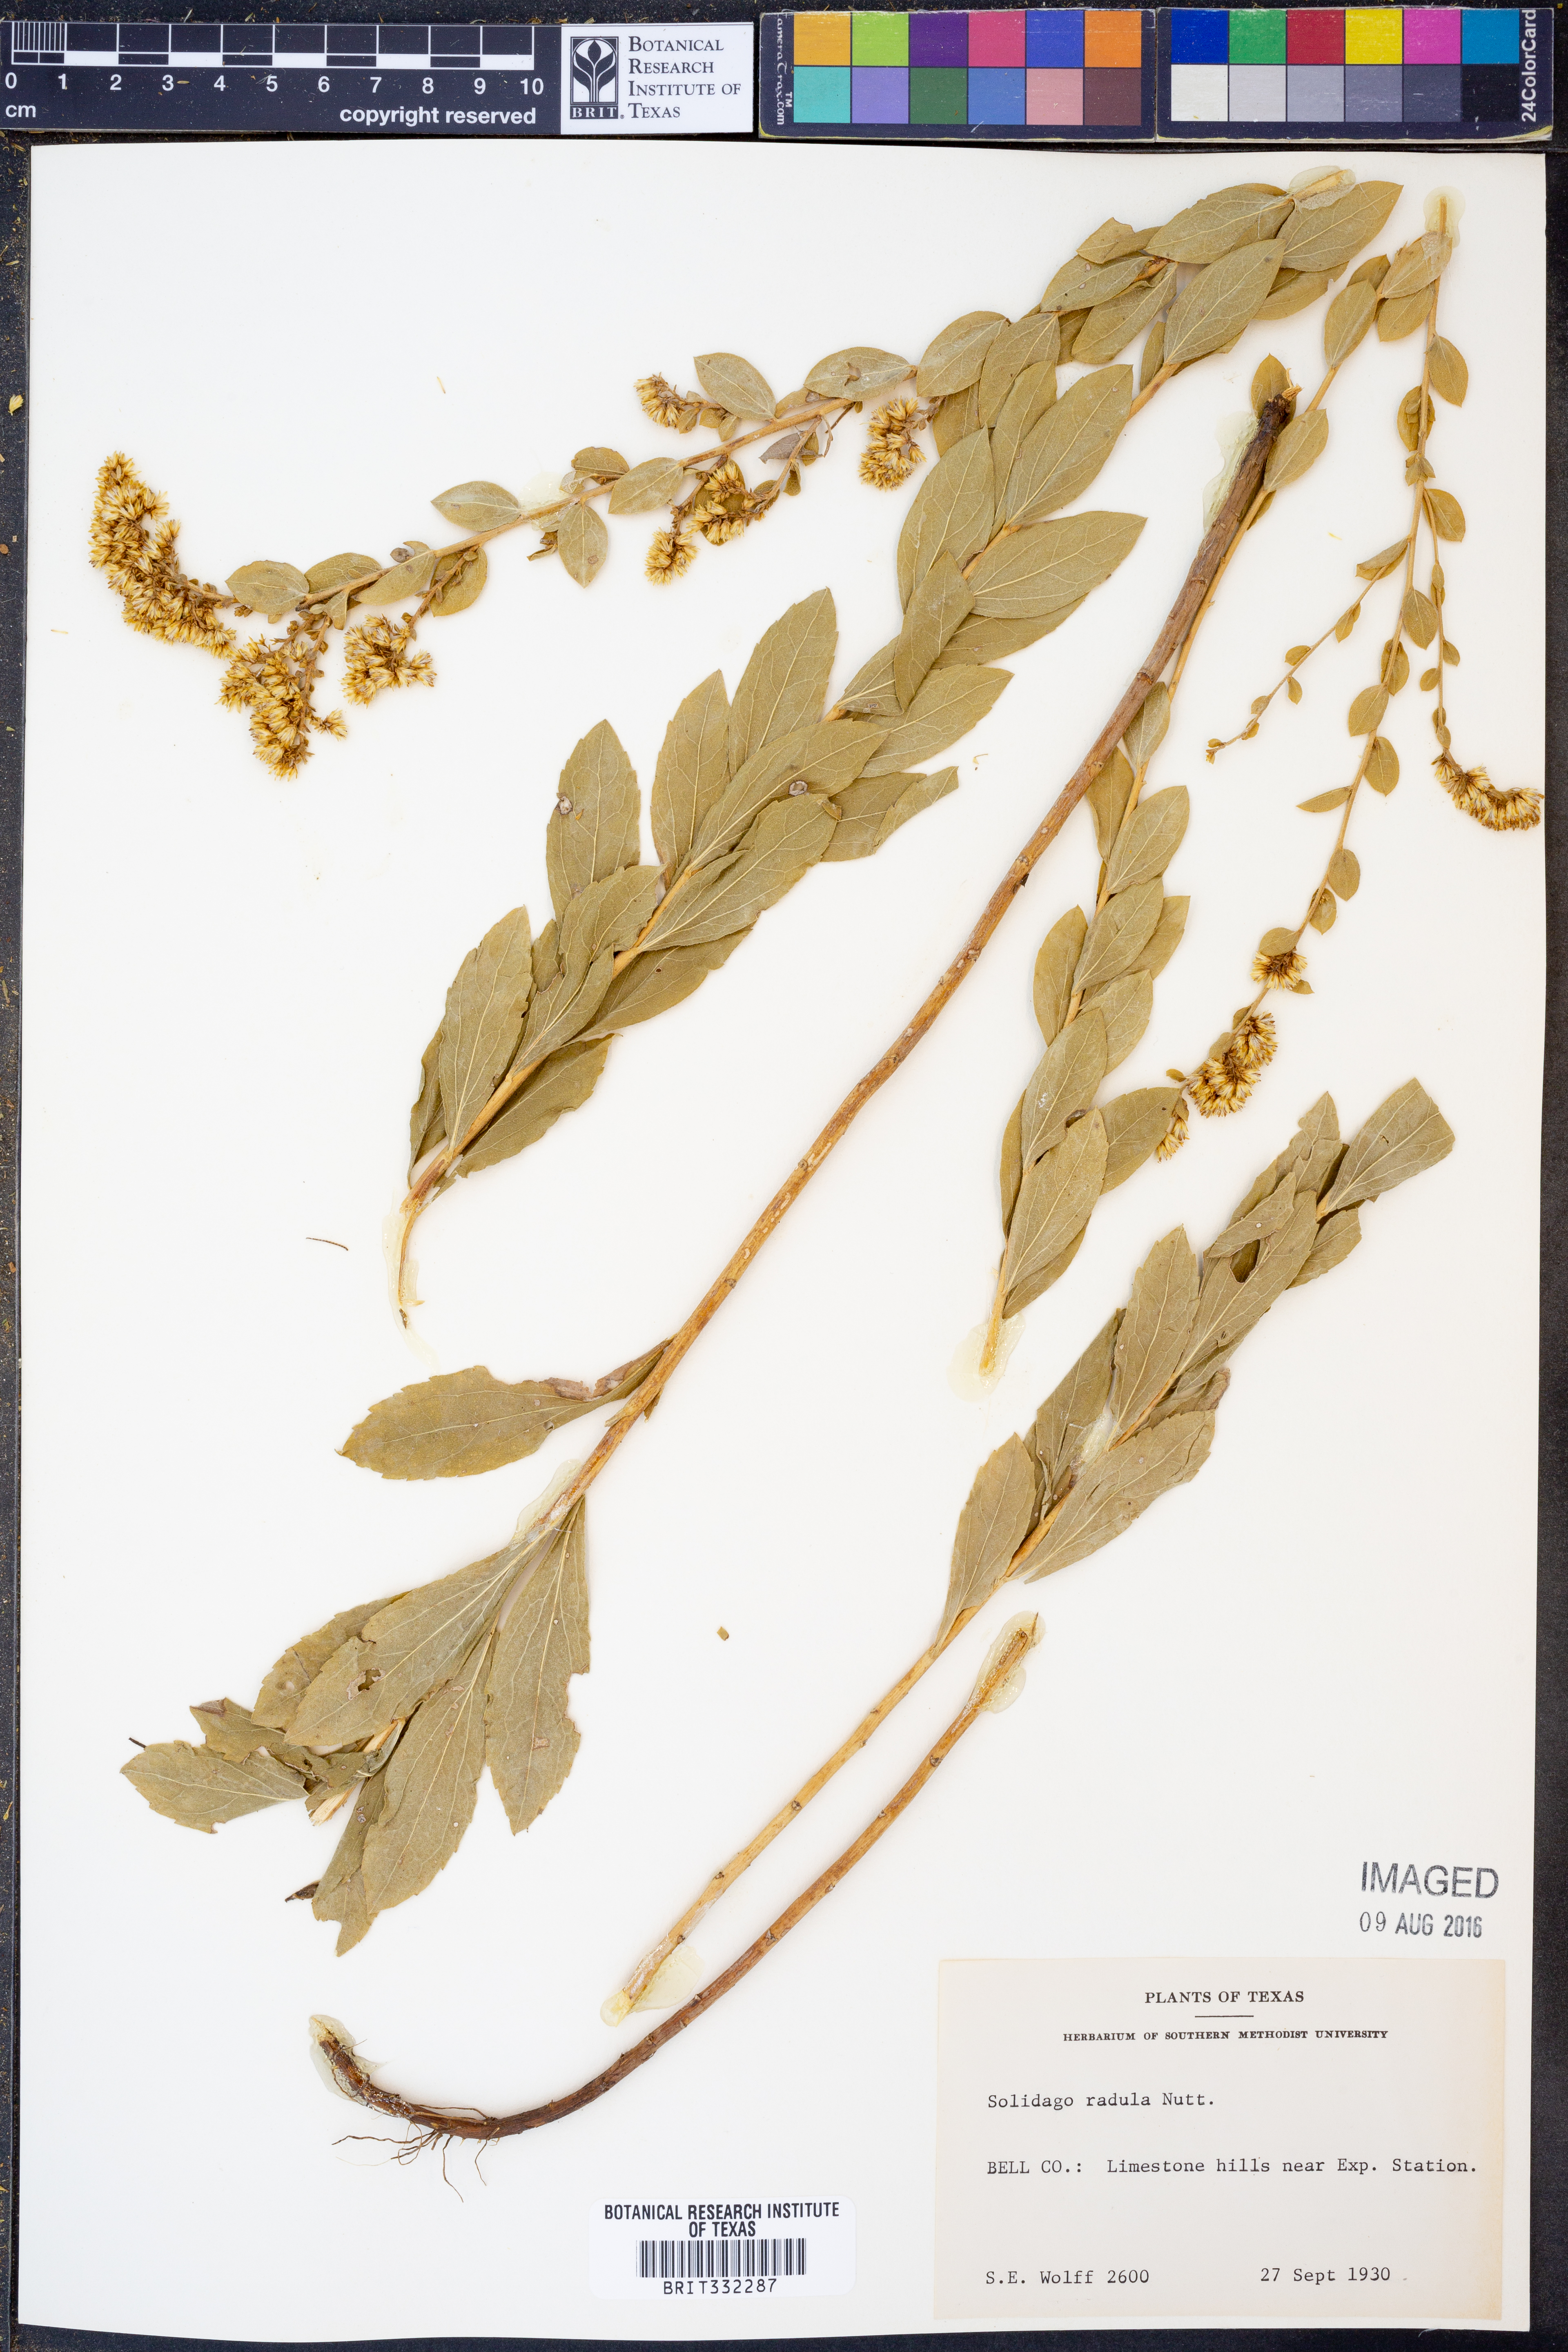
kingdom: Plantae
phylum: Tracheophyta
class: Magnoliopsida
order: Asterales
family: Asteraceae
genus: Solidago
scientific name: Solidago radula
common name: Western rough goldenrod
